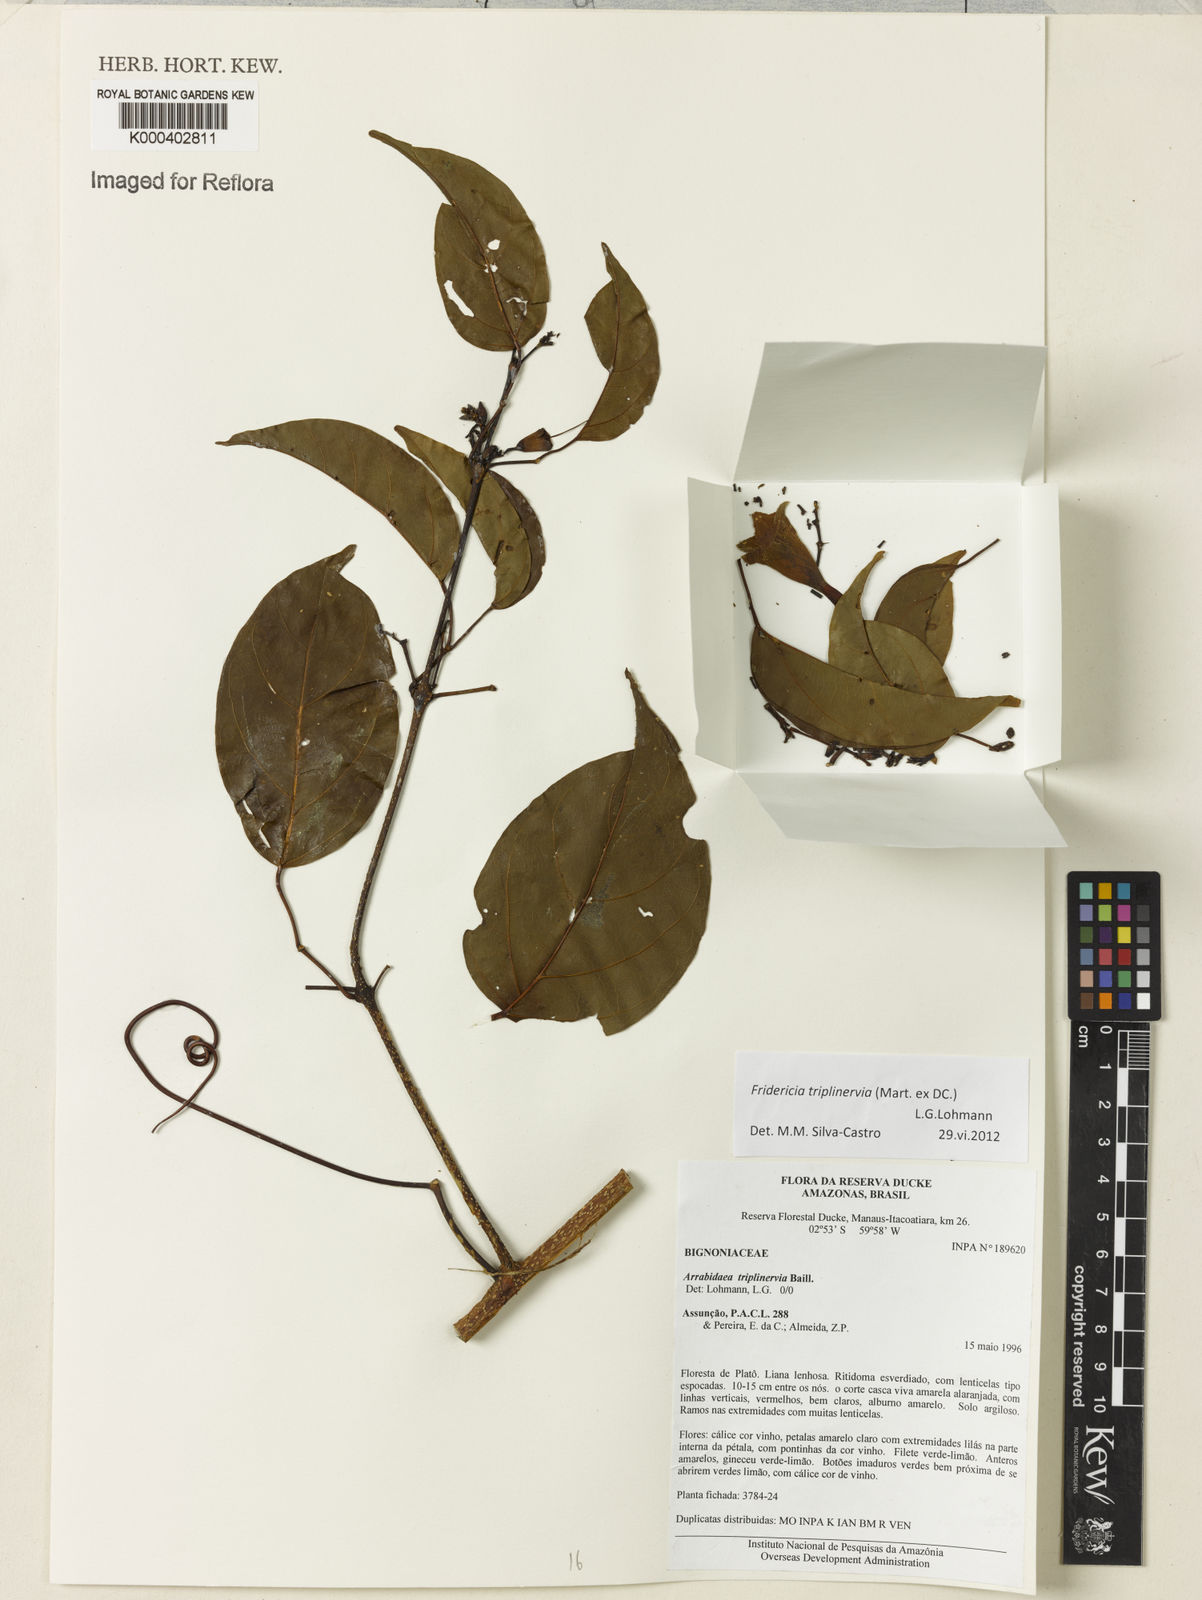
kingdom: Plantae
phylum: Tracheophyta
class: Magnoliopsida
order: Lamiales
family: Bignoniaceae
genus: Fridericia
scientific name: Fridericia triplinervia
